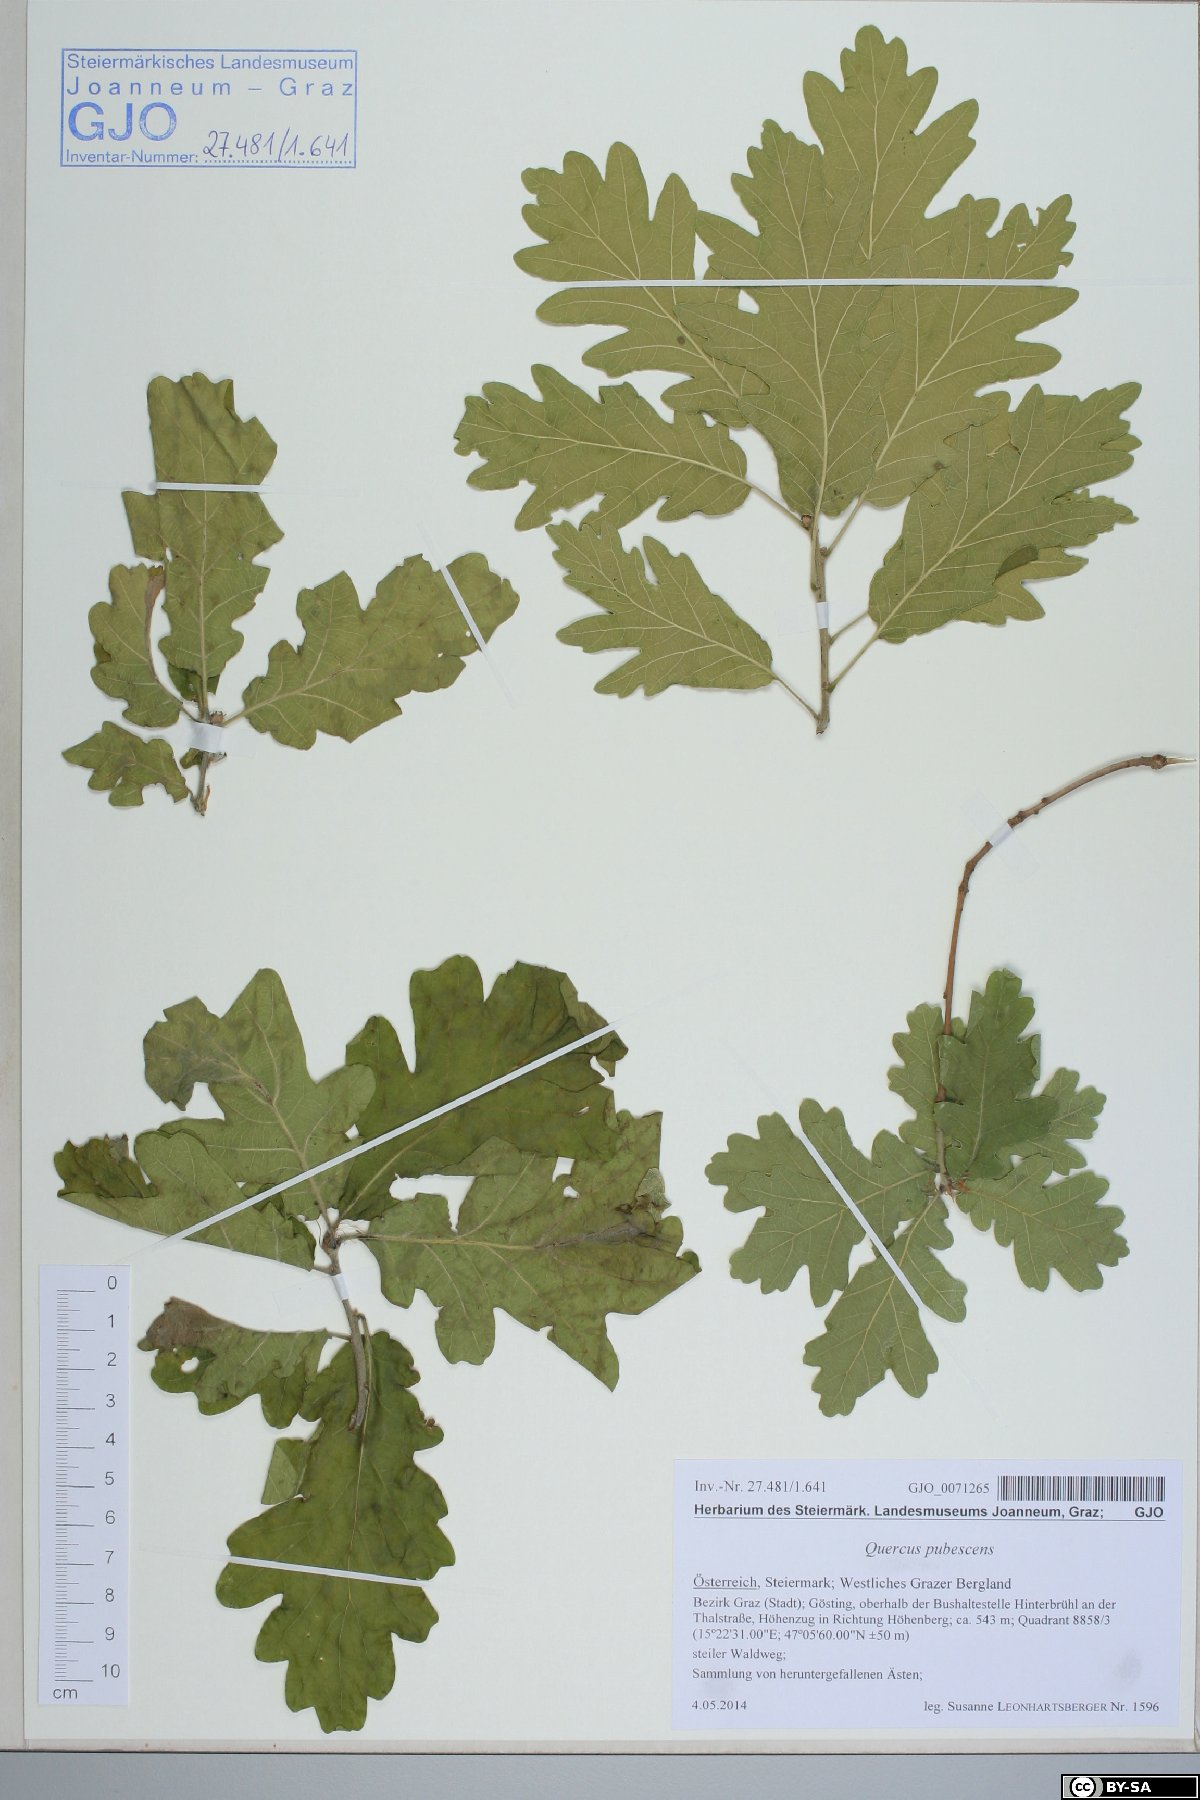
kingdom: Plantae
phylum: Tracheophyta
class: Magnoliopsida
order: Fagales
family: Fagaceae
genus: Quercus
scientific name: Quercus pubescens
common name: Downy oak
